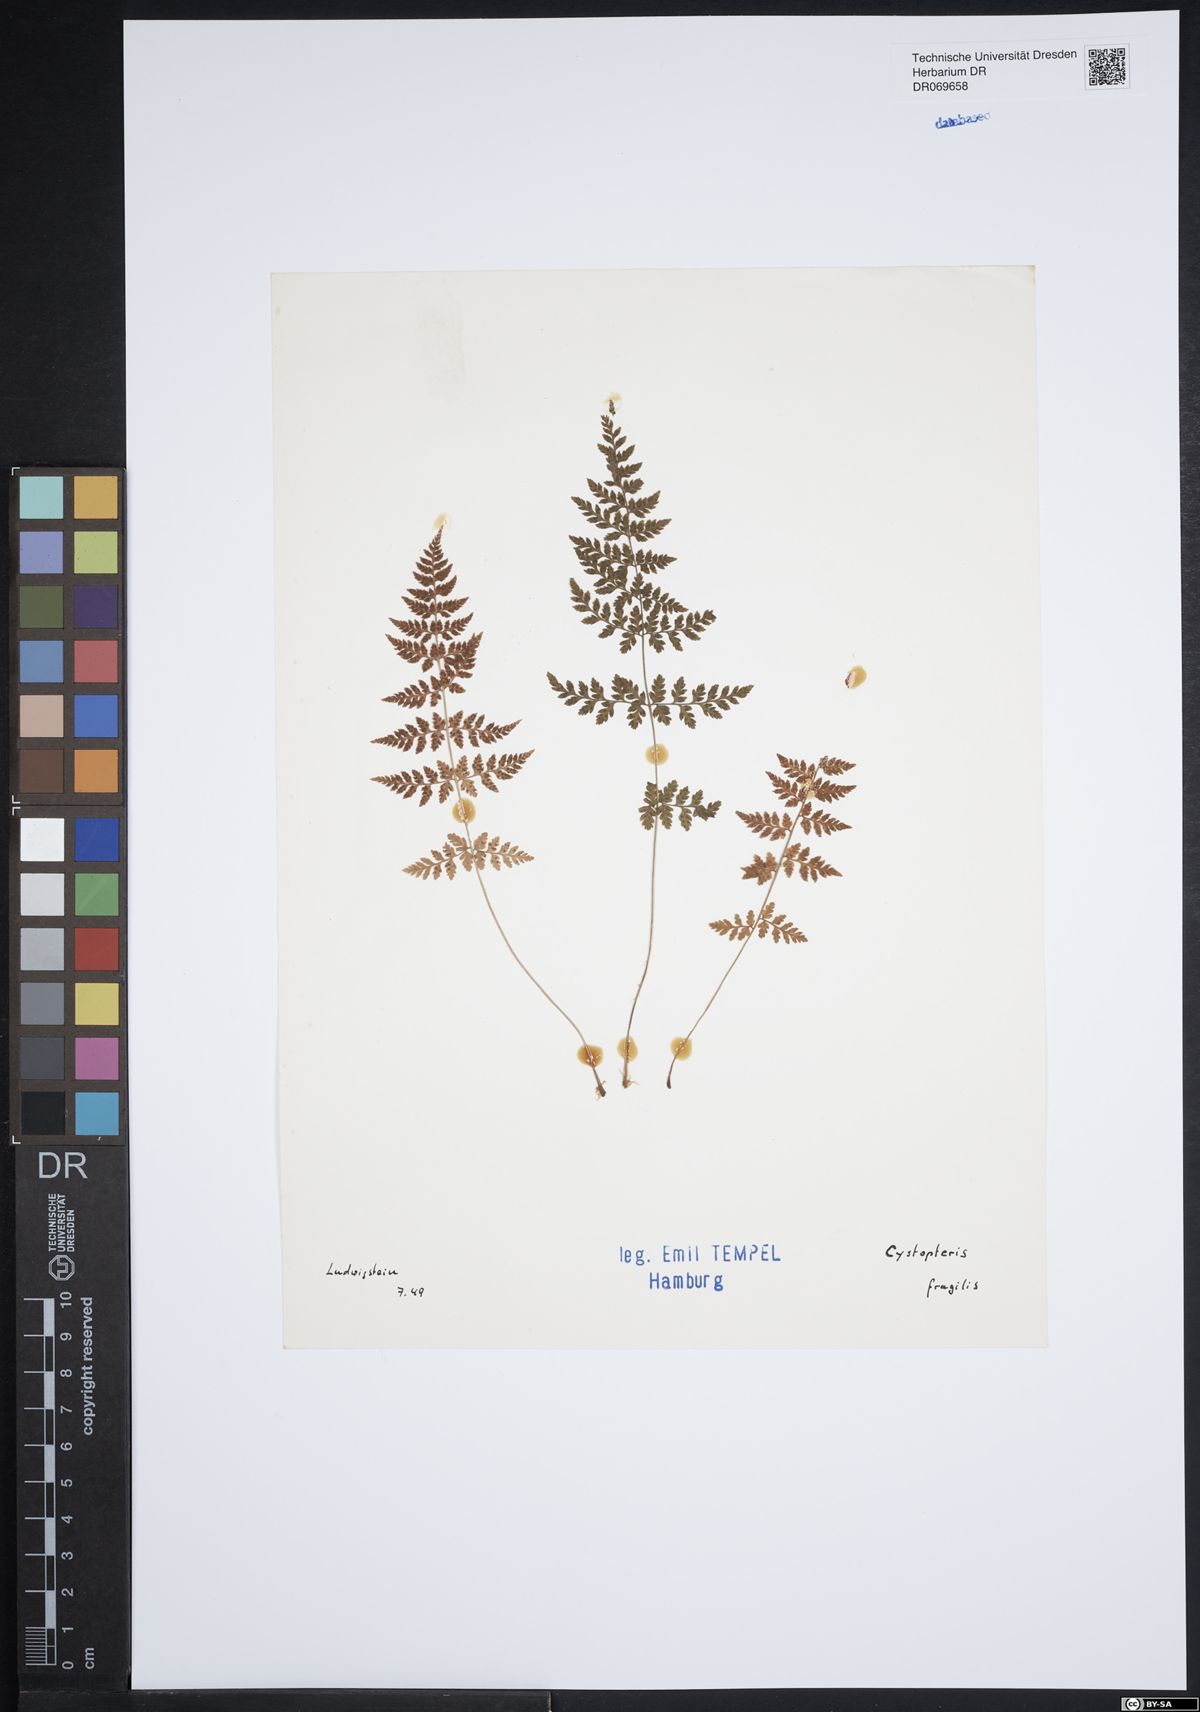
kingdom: Plantae
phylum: Tracheophyta
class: Polypodiopsida
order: Polypodiales
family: Cystopteridaceae
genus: Cystopteris
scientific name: Cystopteris fragilis
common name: Brittle bladder fern
